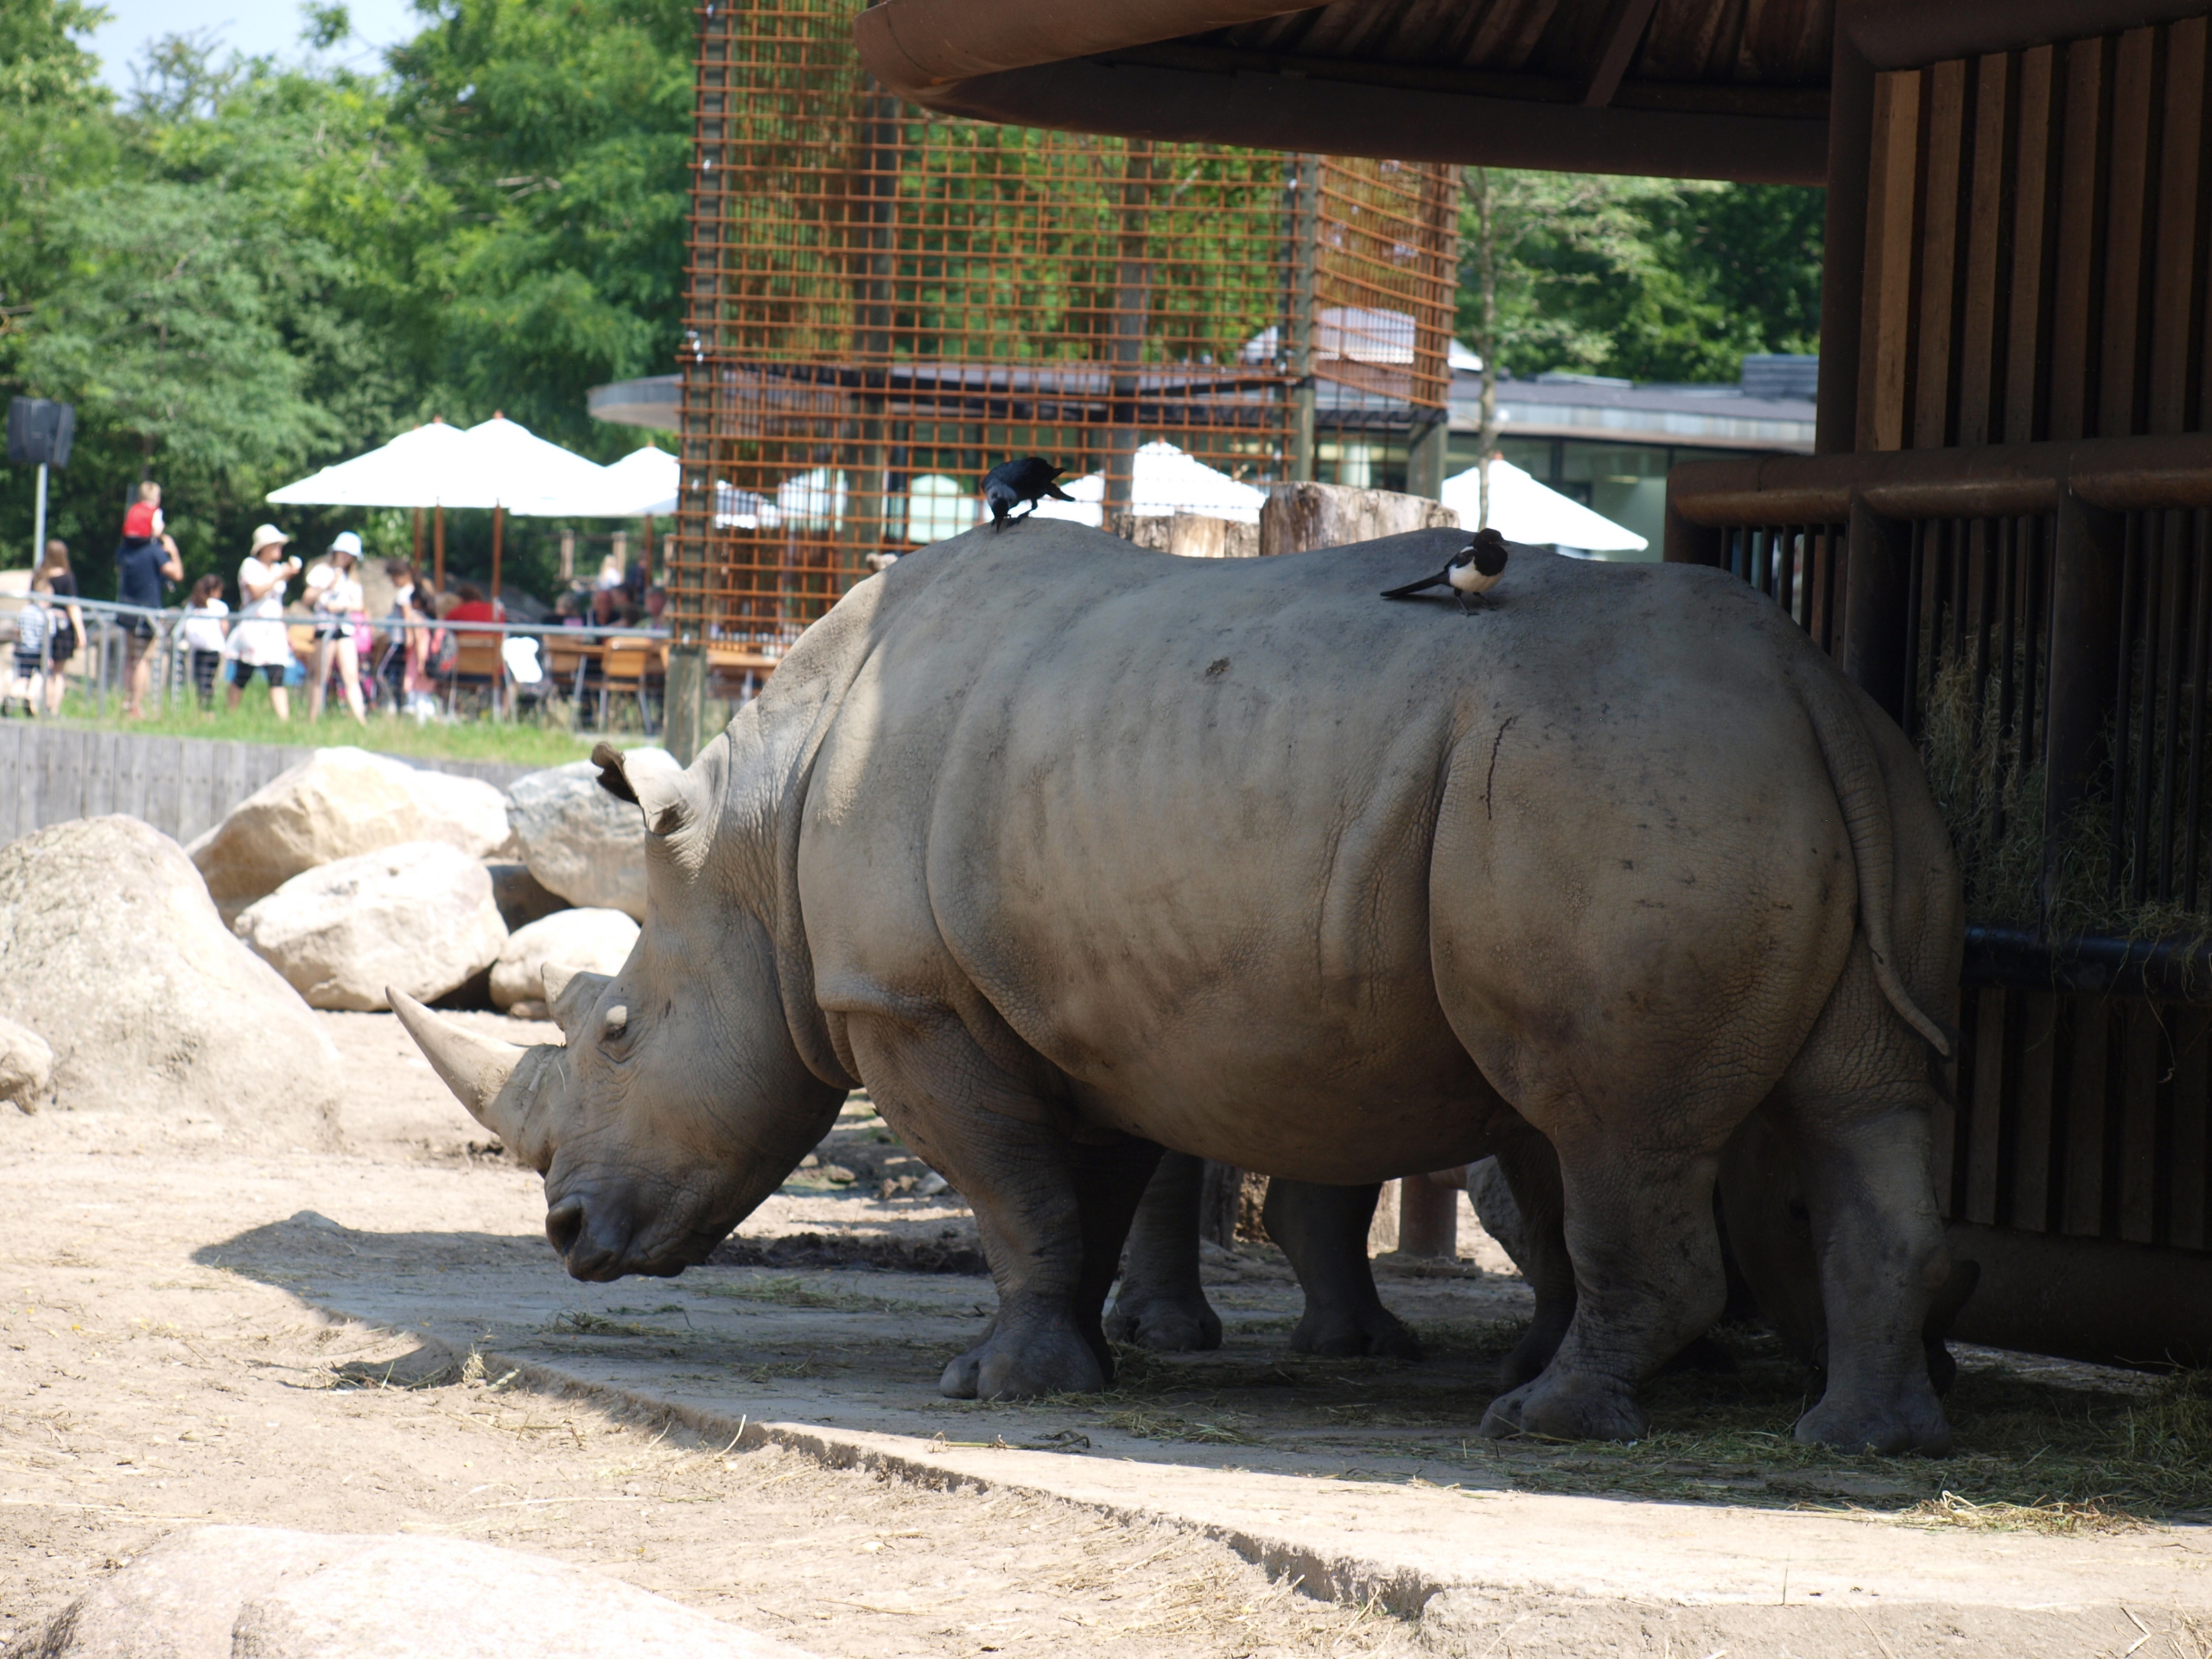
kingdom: Animalia
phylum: Chordata
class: Aves
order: Passeriformes
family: Corvidae
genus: Coloeus
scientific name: Coloeus monedula
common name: Allike
